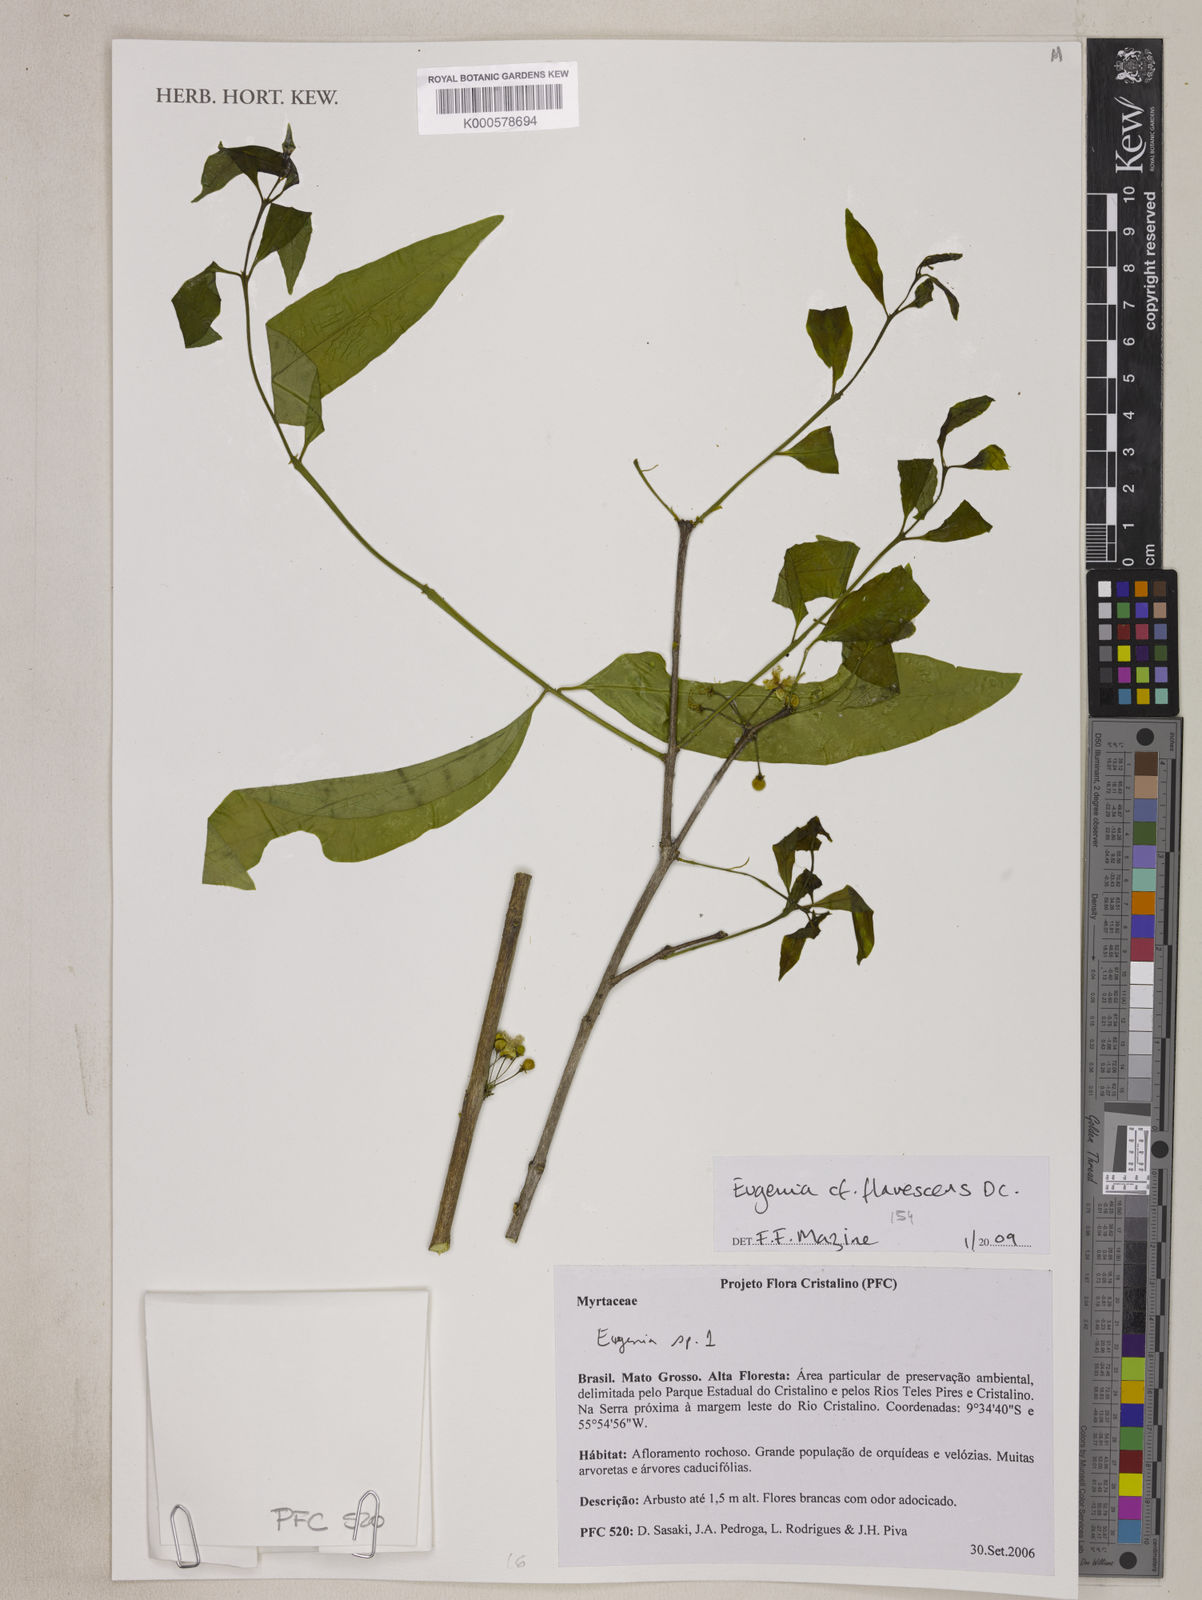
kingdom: Plantae
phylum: Tracheophyta
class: Magnoliopsida
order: Myrtales
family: Myrtaceae
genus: Eugenia
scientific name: Eugenia flavescens
